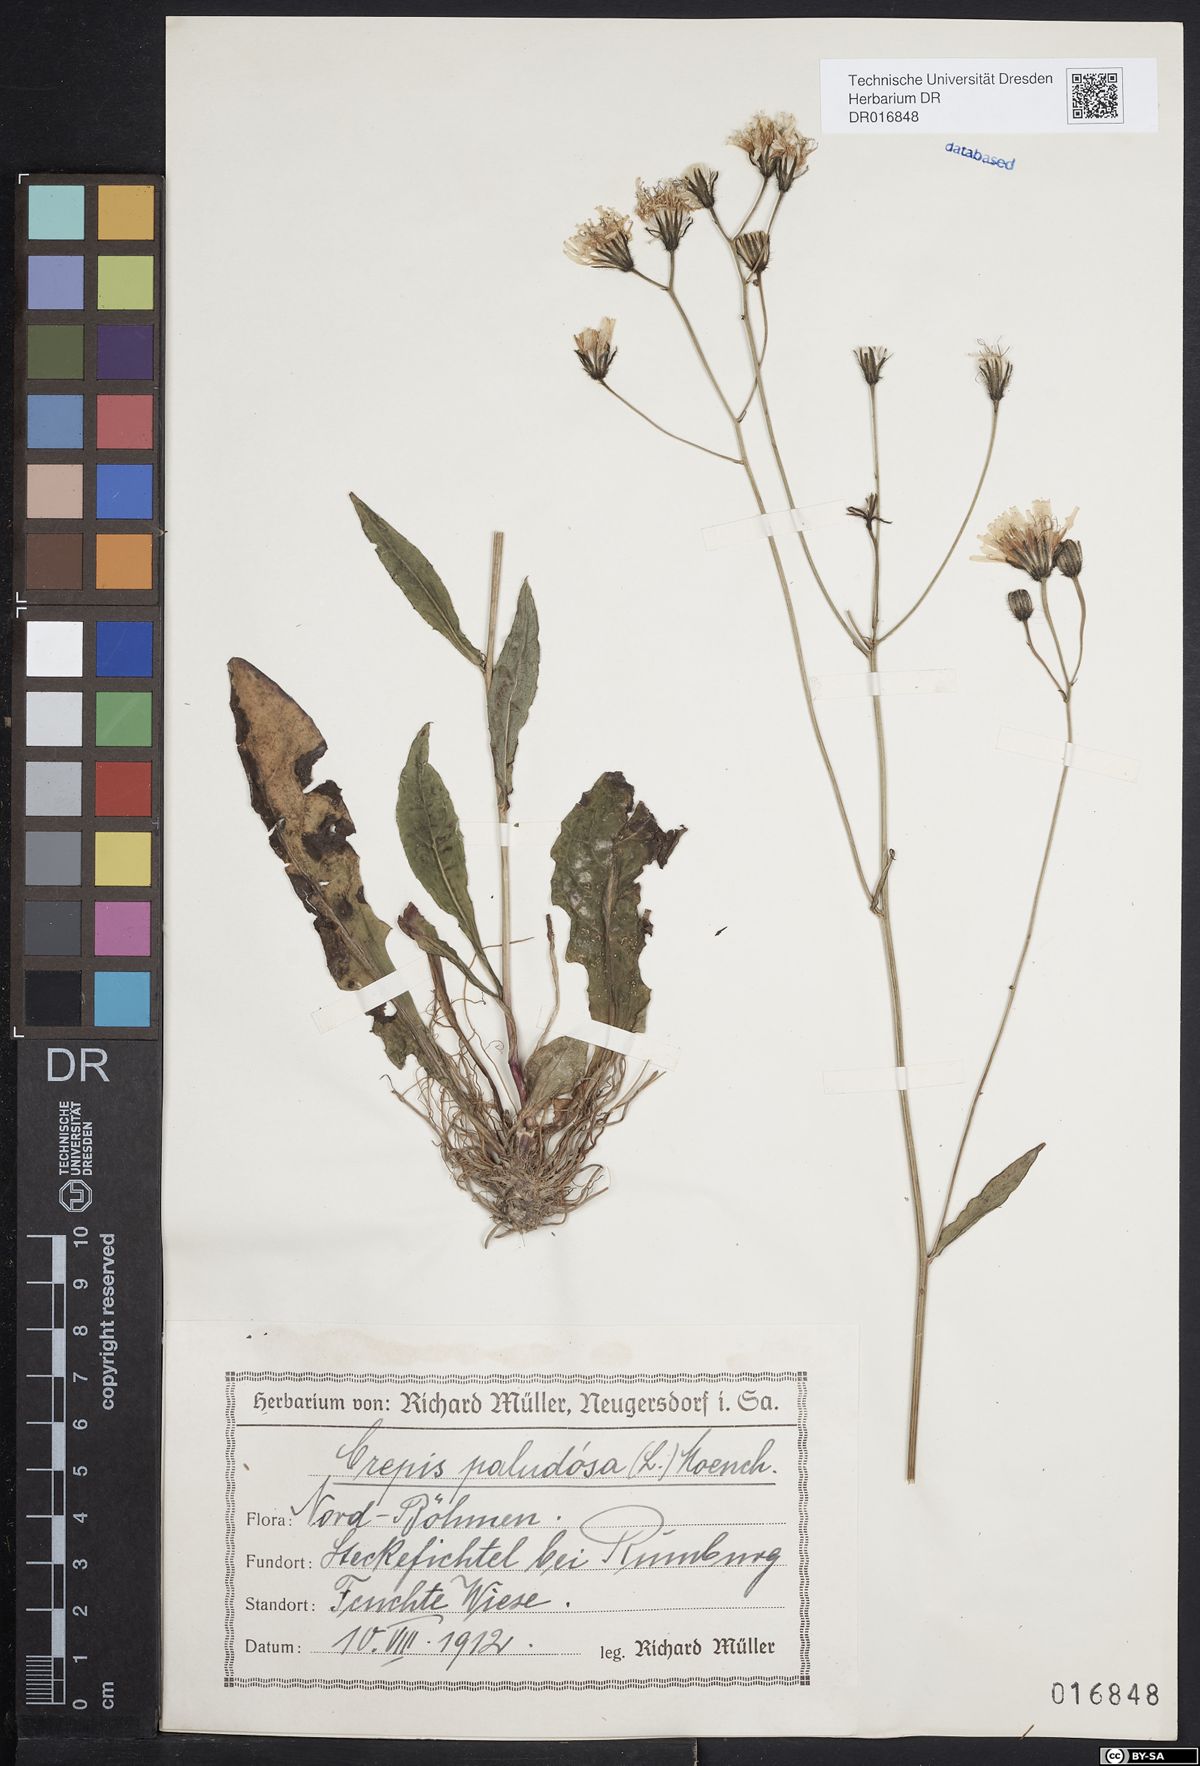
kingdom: Plantae
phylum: Tracheophyta
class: Magnoliopsida
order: Asterales
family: Asteraceae
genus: Crepis
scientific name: Crepis paludosa
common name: Marsh hawk's-beard
